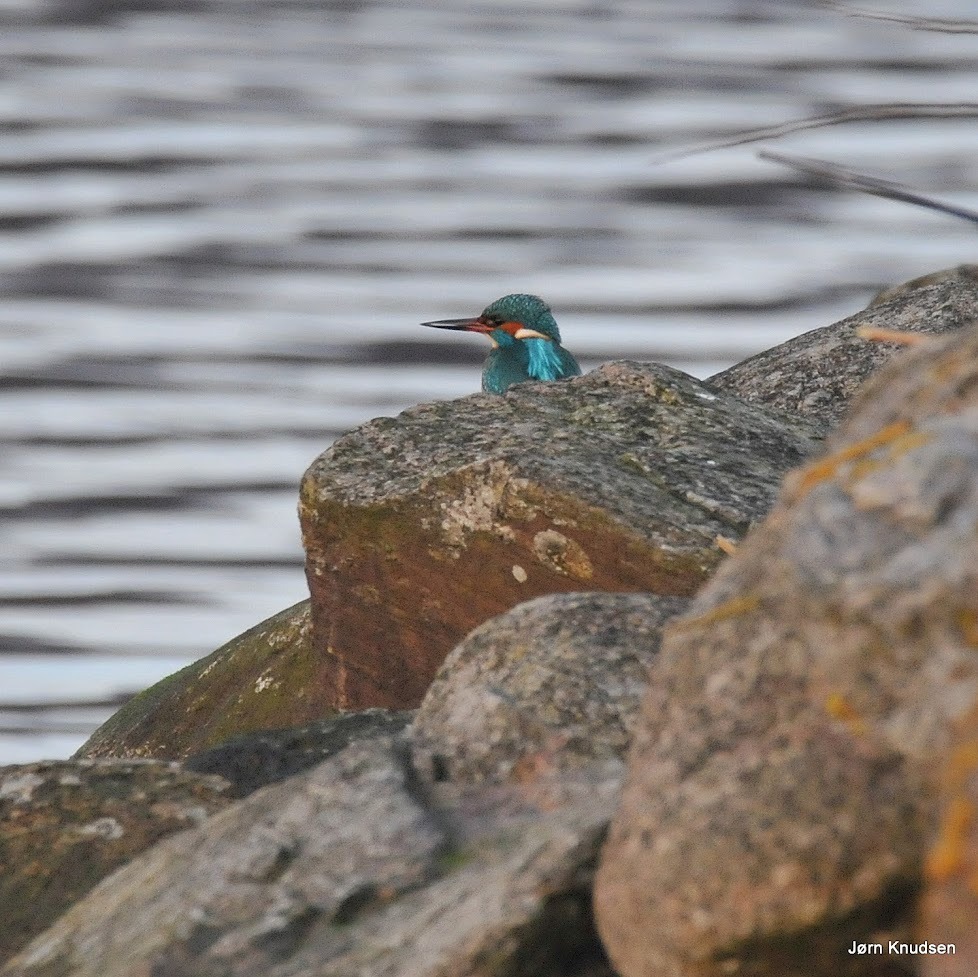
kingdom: Animalia
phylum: Chordata
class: Aves
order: Coraciiformes
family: Alcedinidae
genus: Alcedo
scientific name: Alcedo atthis
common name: Isfugl
